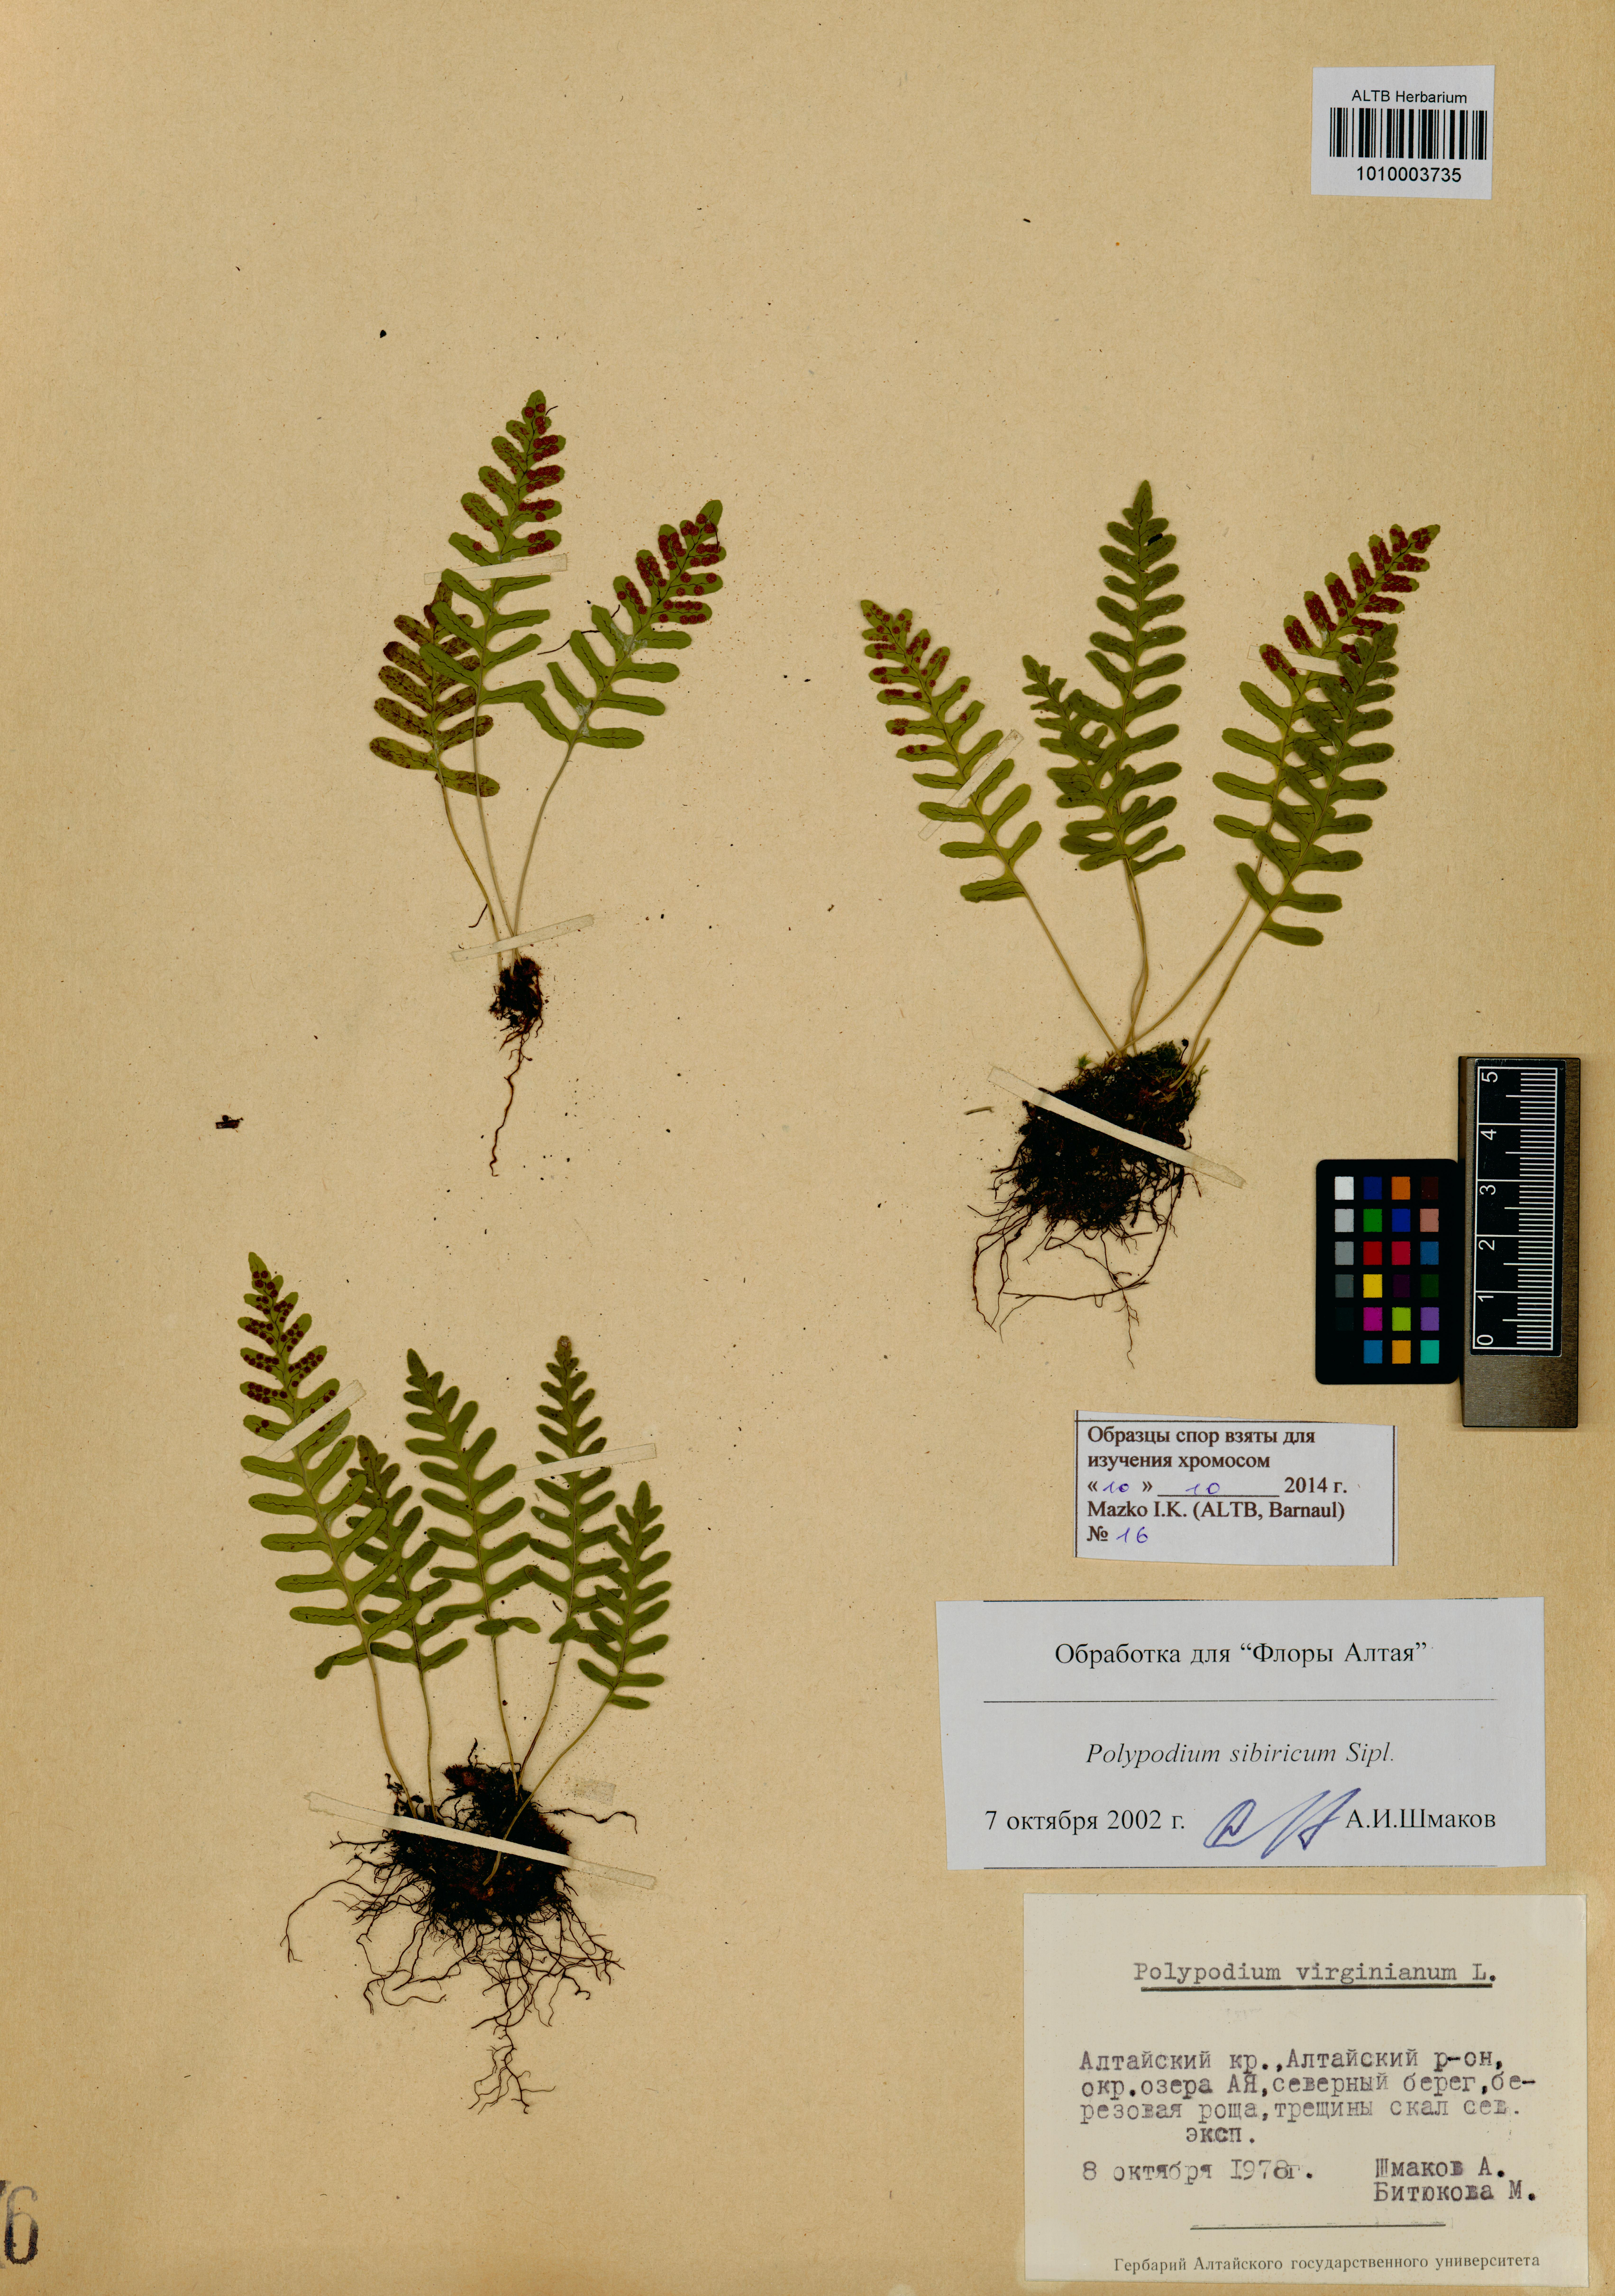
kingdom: Plantae
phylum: Tracheophyta
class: Polypodiopsida
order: Polypodiales
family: Polypodiaceae
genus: Polypodium
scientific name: Polypodium sibiricum
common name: Siberian polypody
